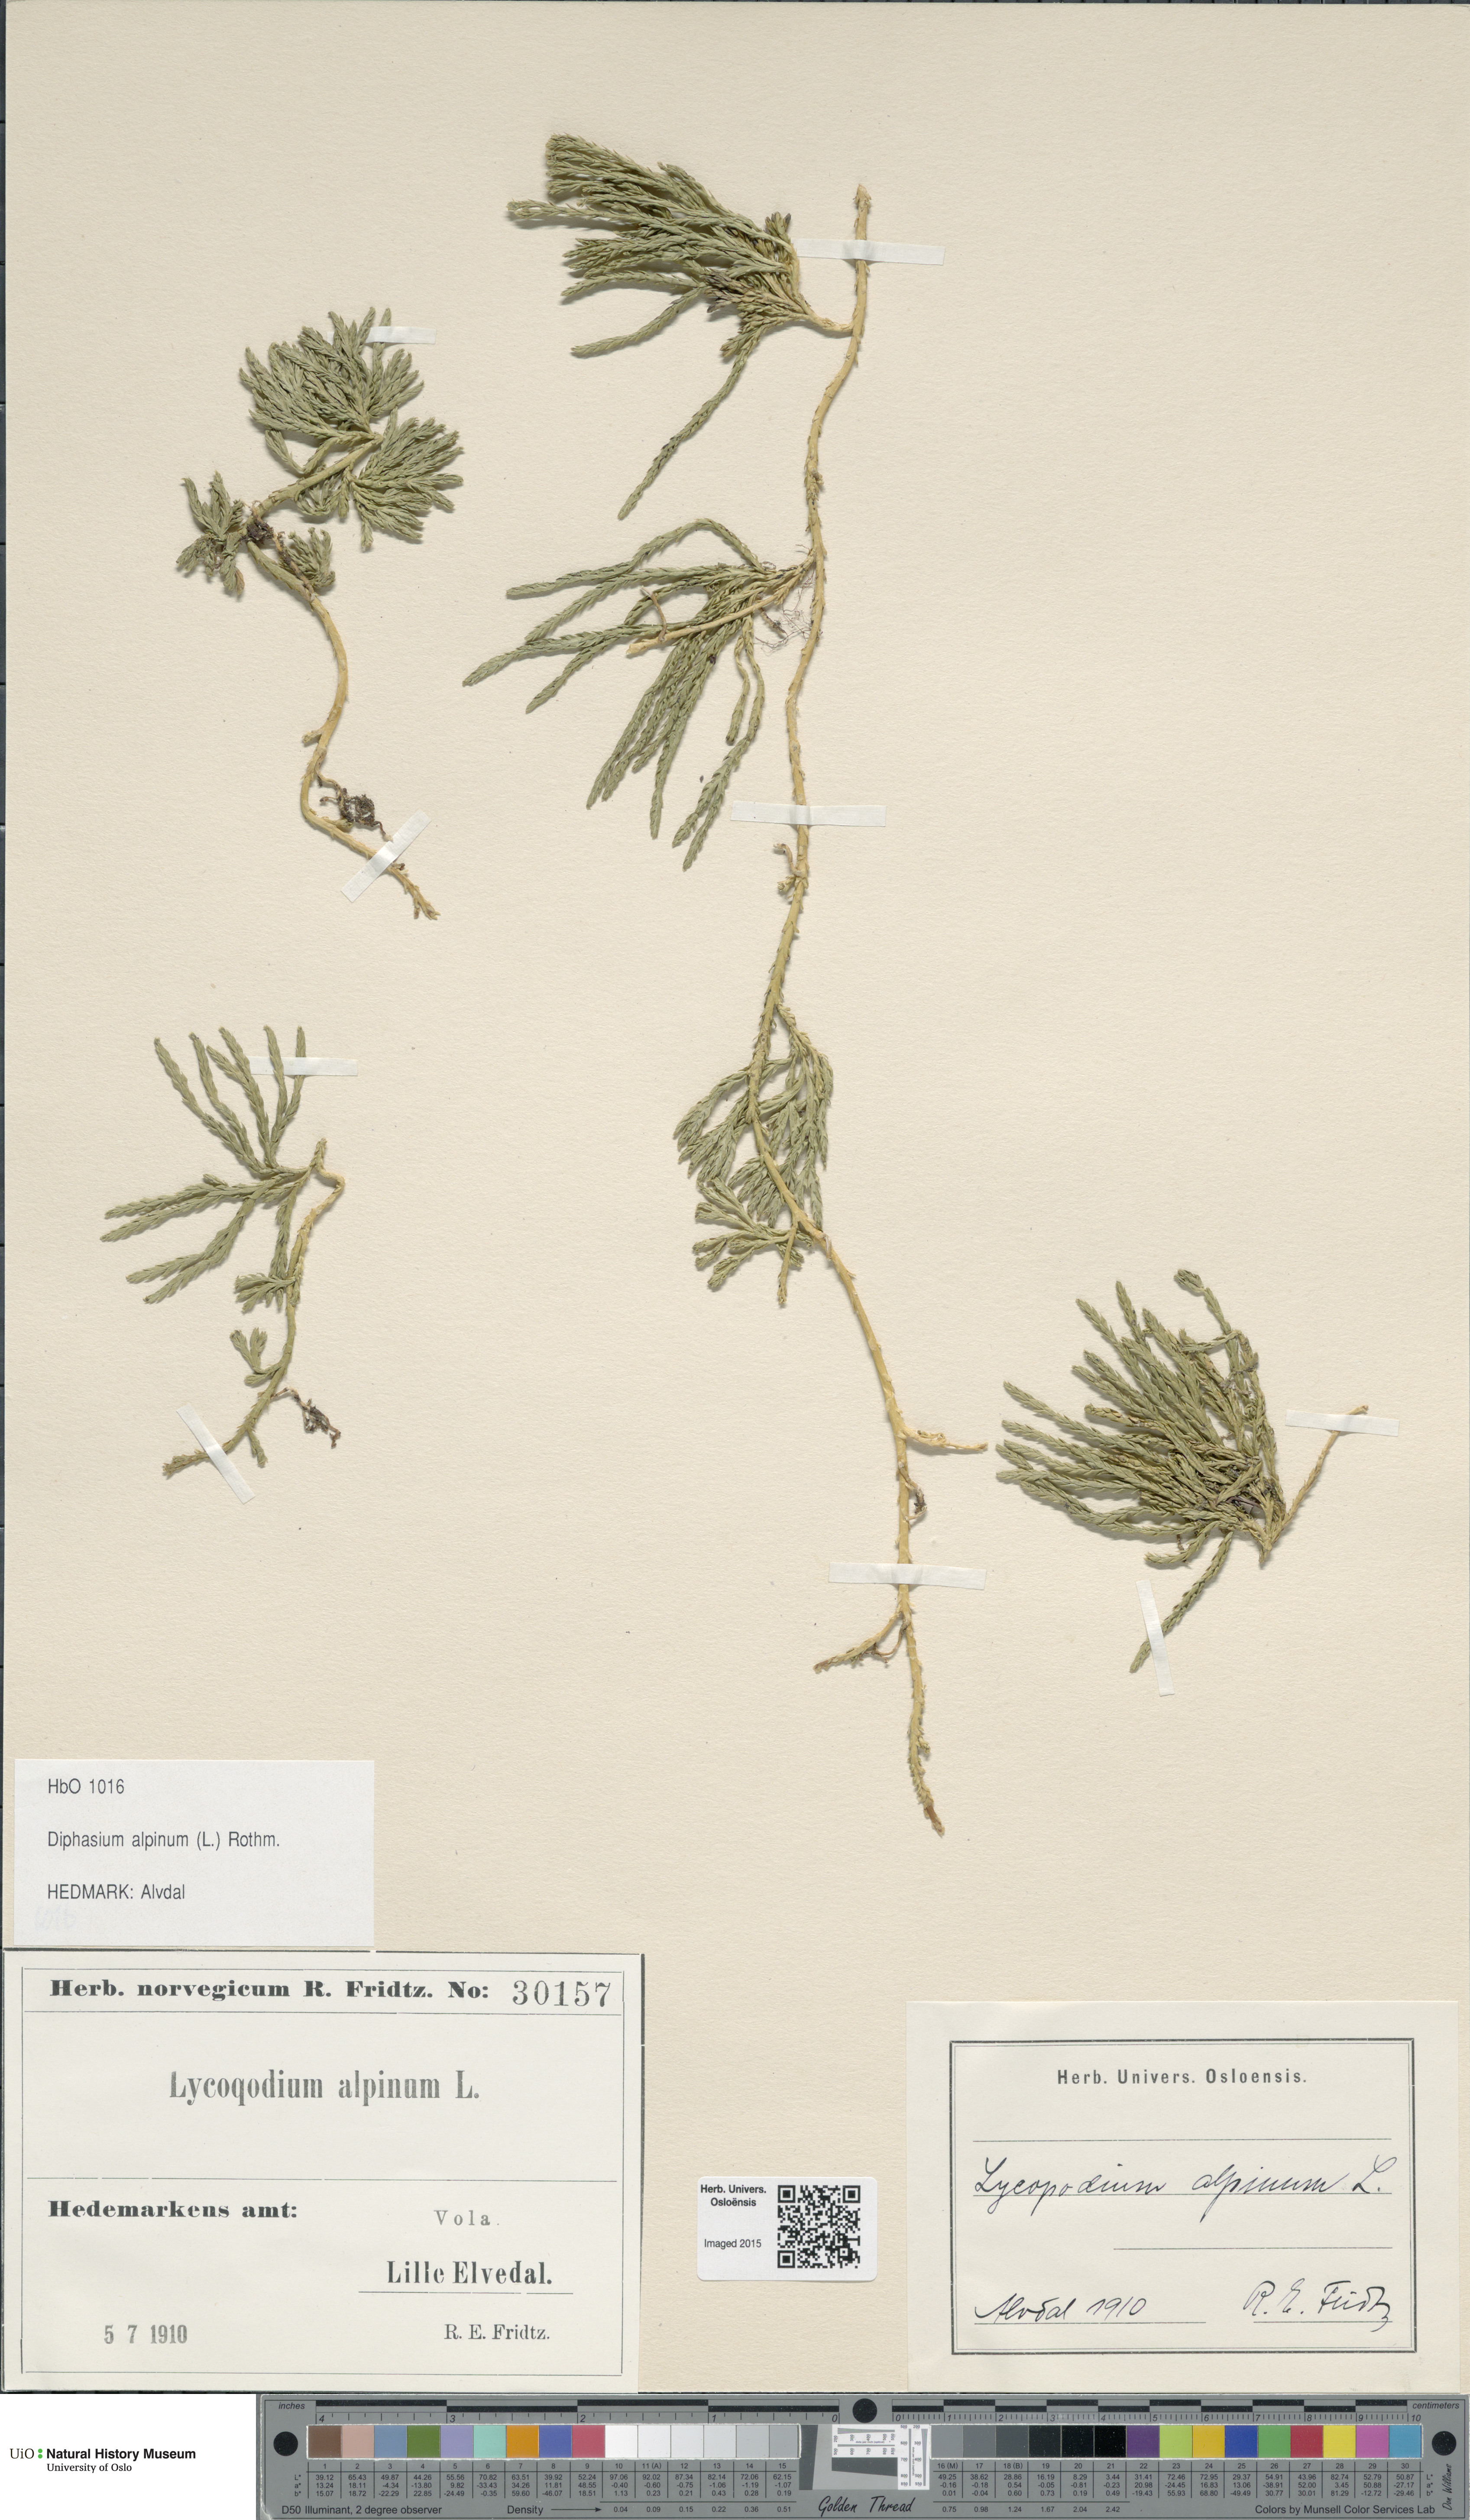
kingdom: Plantae
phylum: Tracheophyta
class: Lycopodiopsida
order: Lycopodiales
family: Lycopodiaceae
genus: Diphasiastrum
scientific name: Diphasiastrum alpinum
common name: Alpine clubmoss
